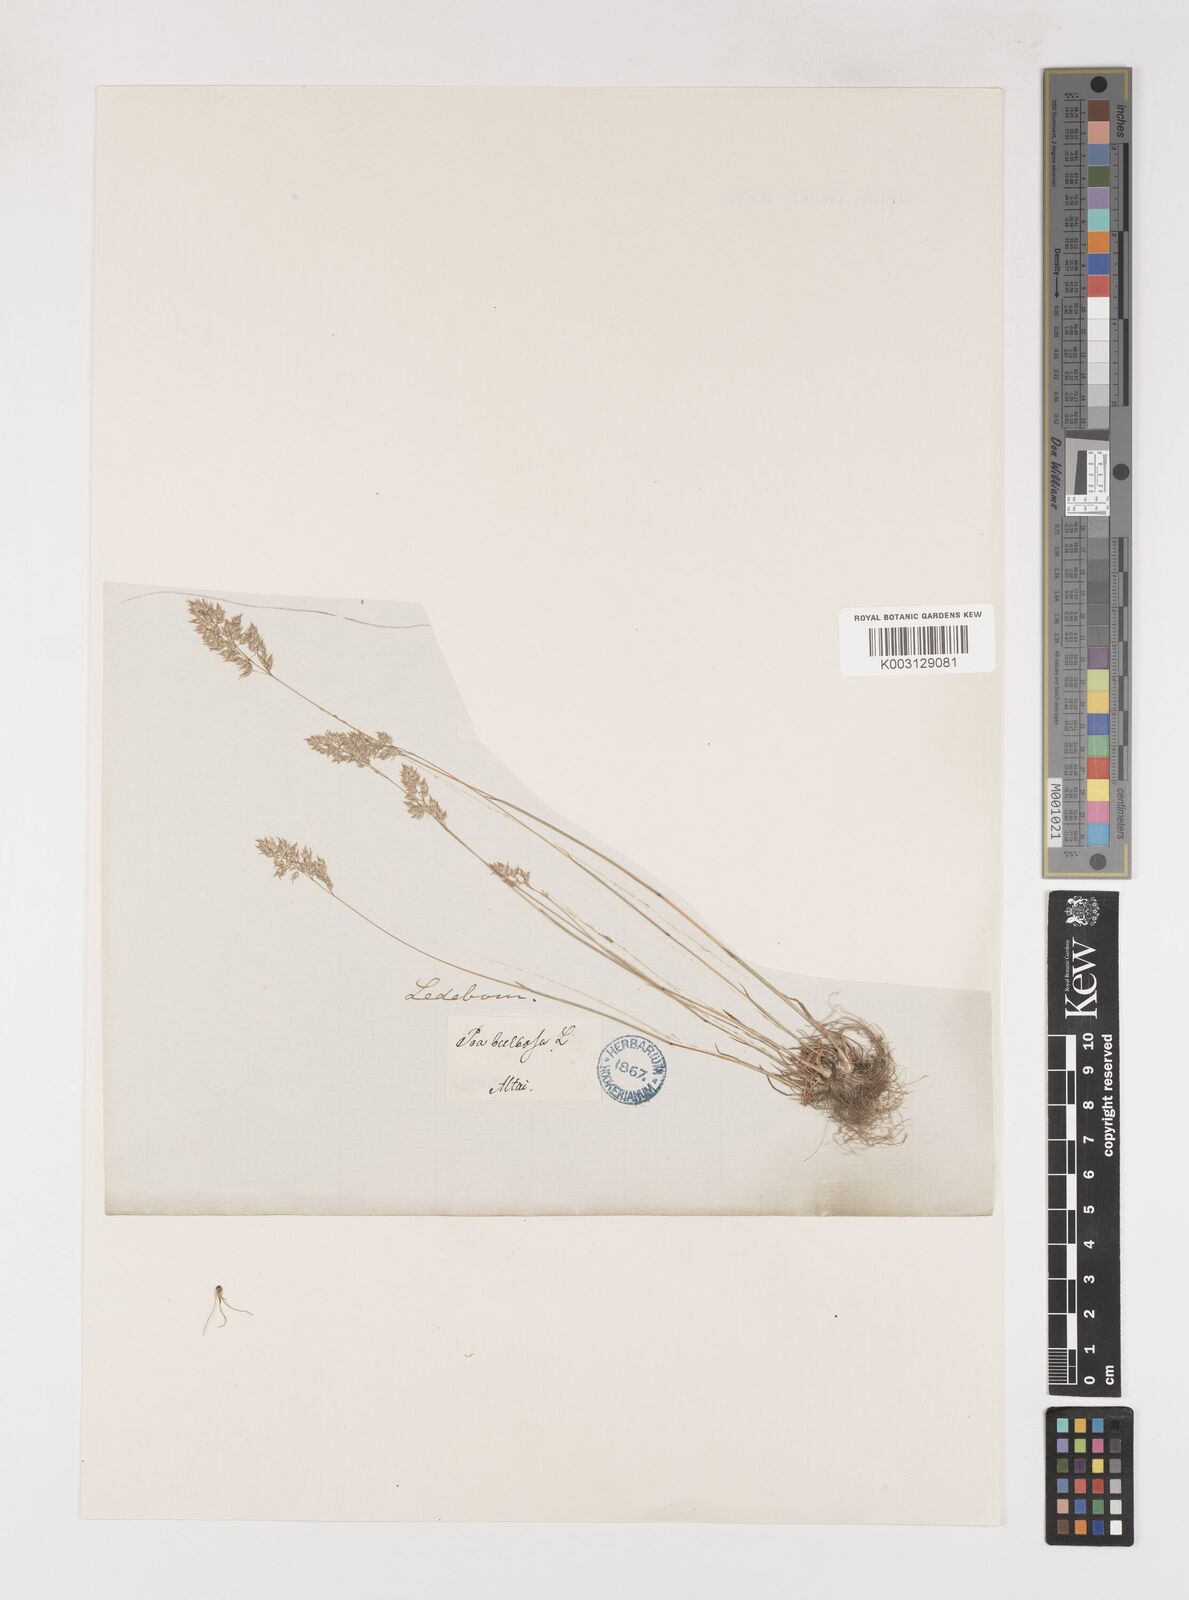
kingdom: Plantae
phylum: Tracheophyta
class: Liliopsida
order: Poales
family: Poaceae
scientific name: Poaceae
